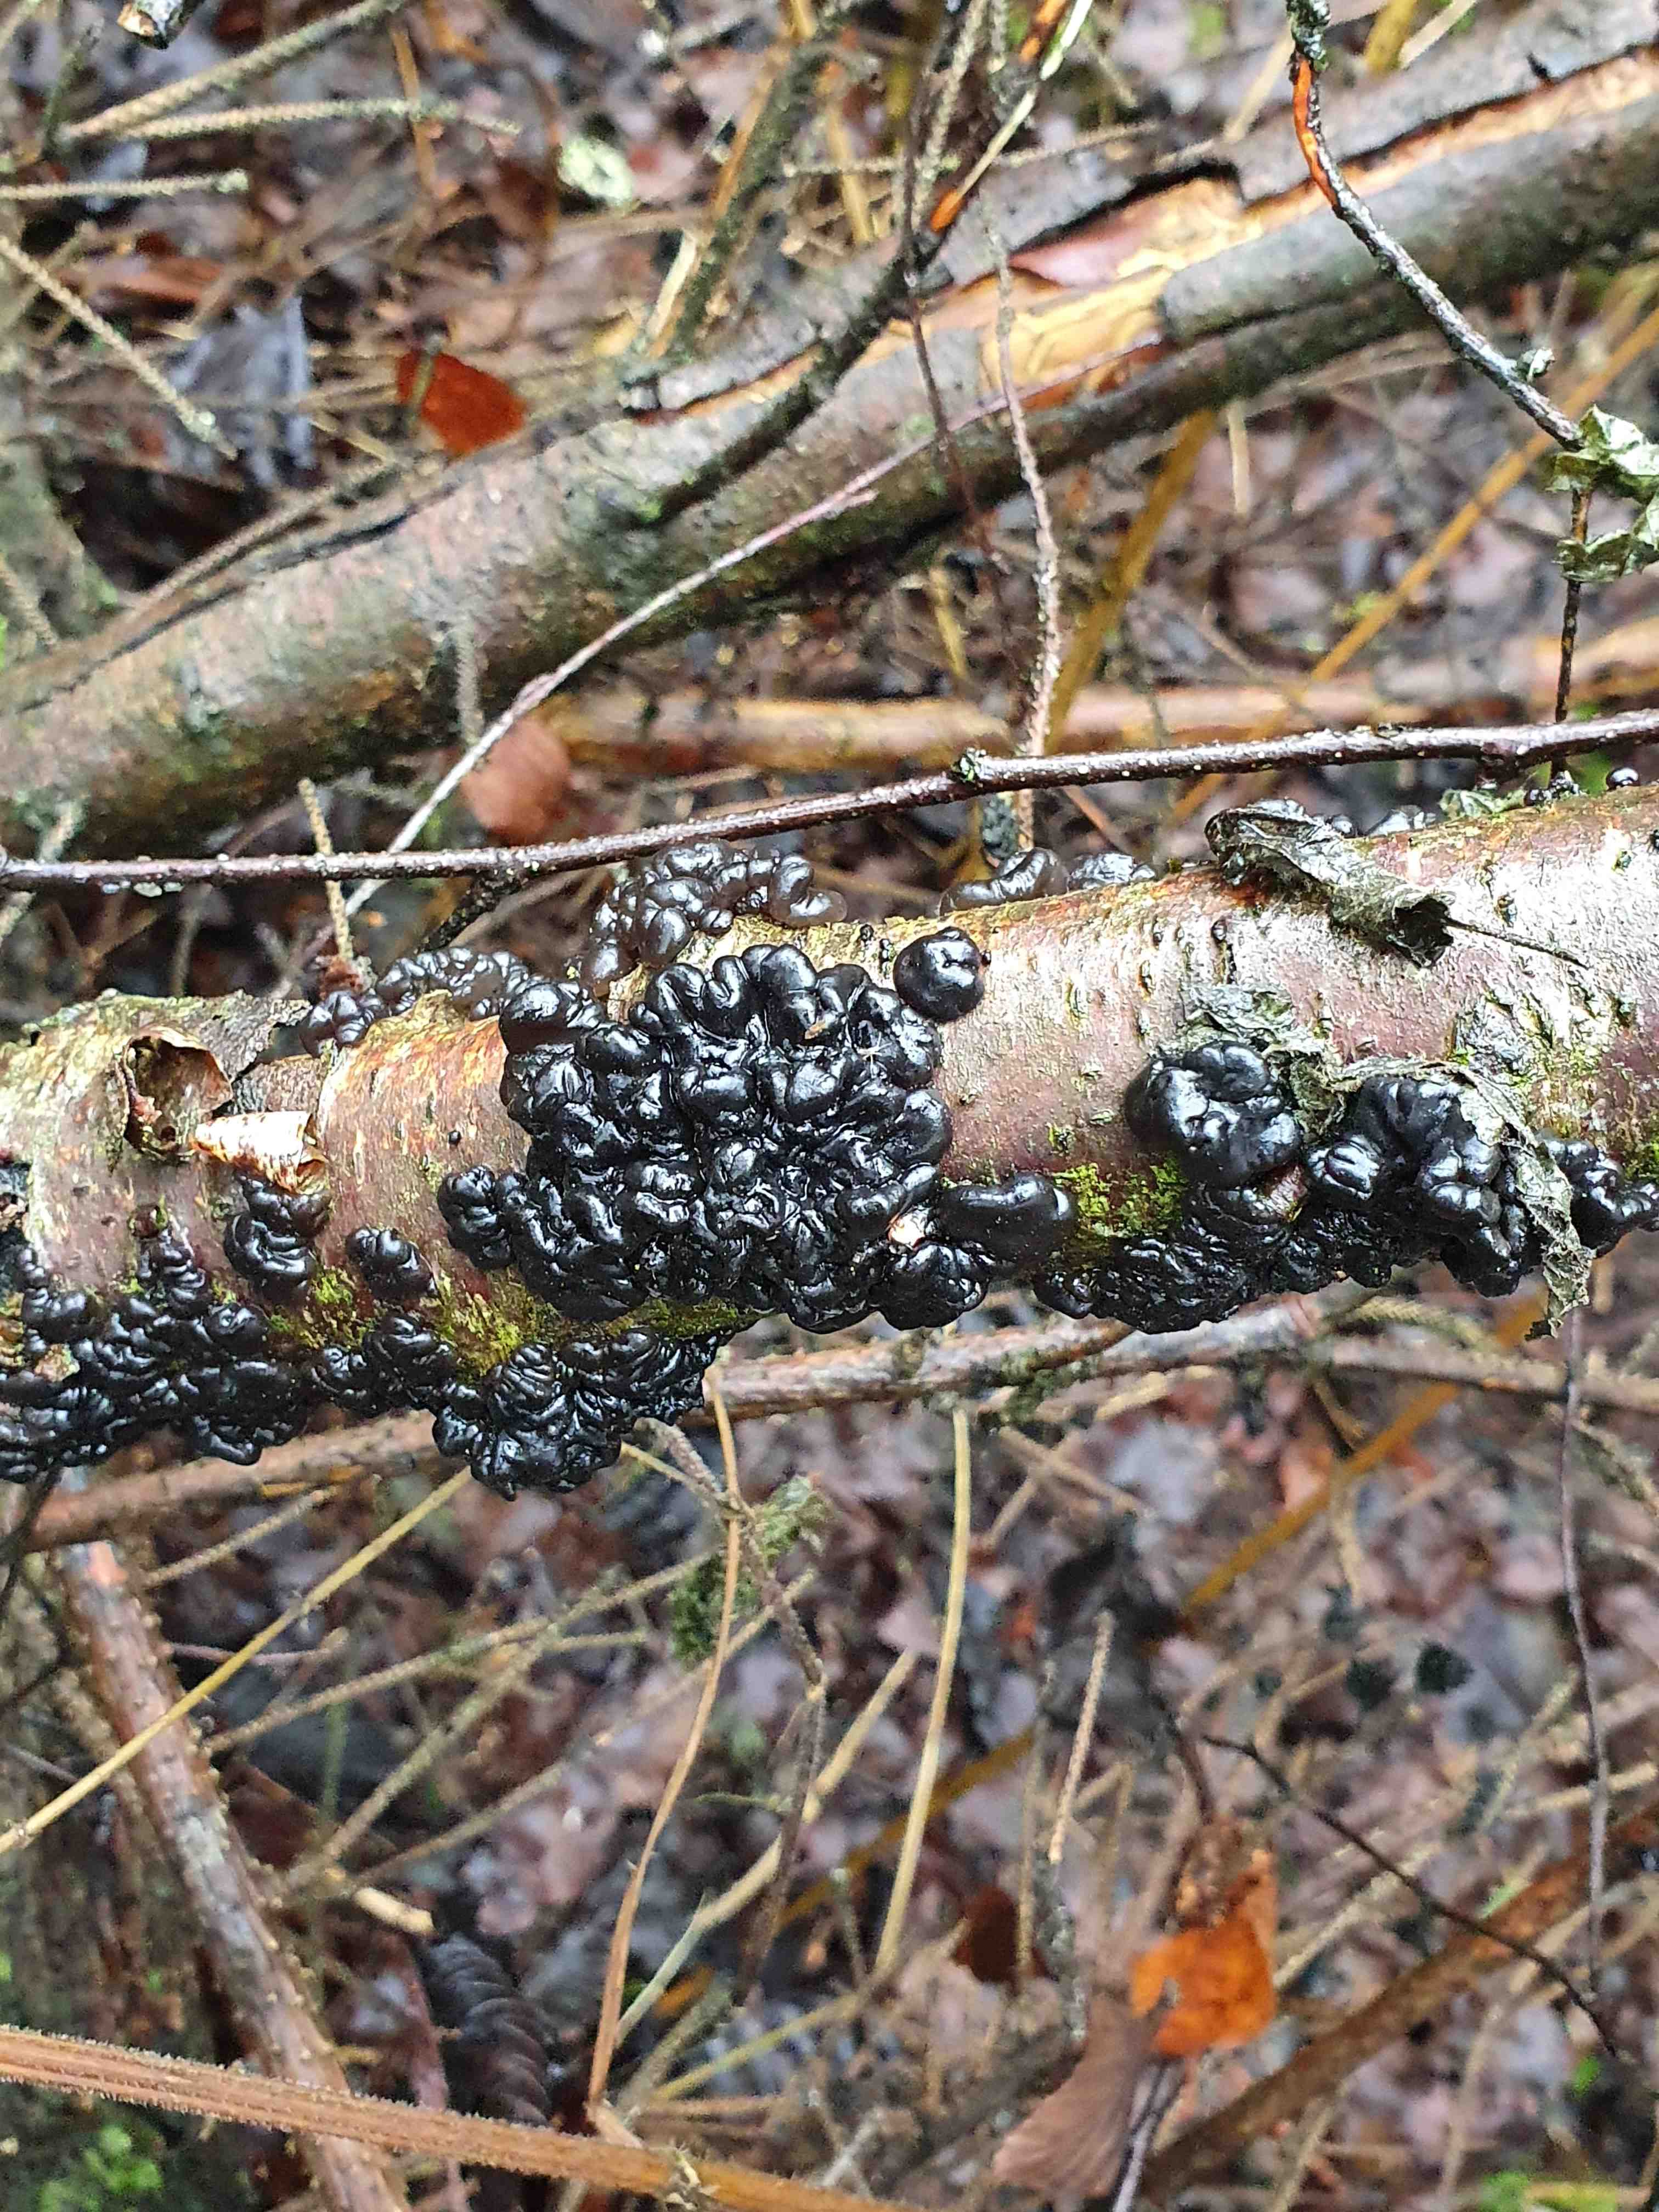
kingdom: Fungi
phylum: Basidiomycota
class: Agaricomycetes
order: Auriculariales
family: Auriculariaceae
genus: Exidia
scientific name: Exidia nigricans
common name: almindelig bævretop
